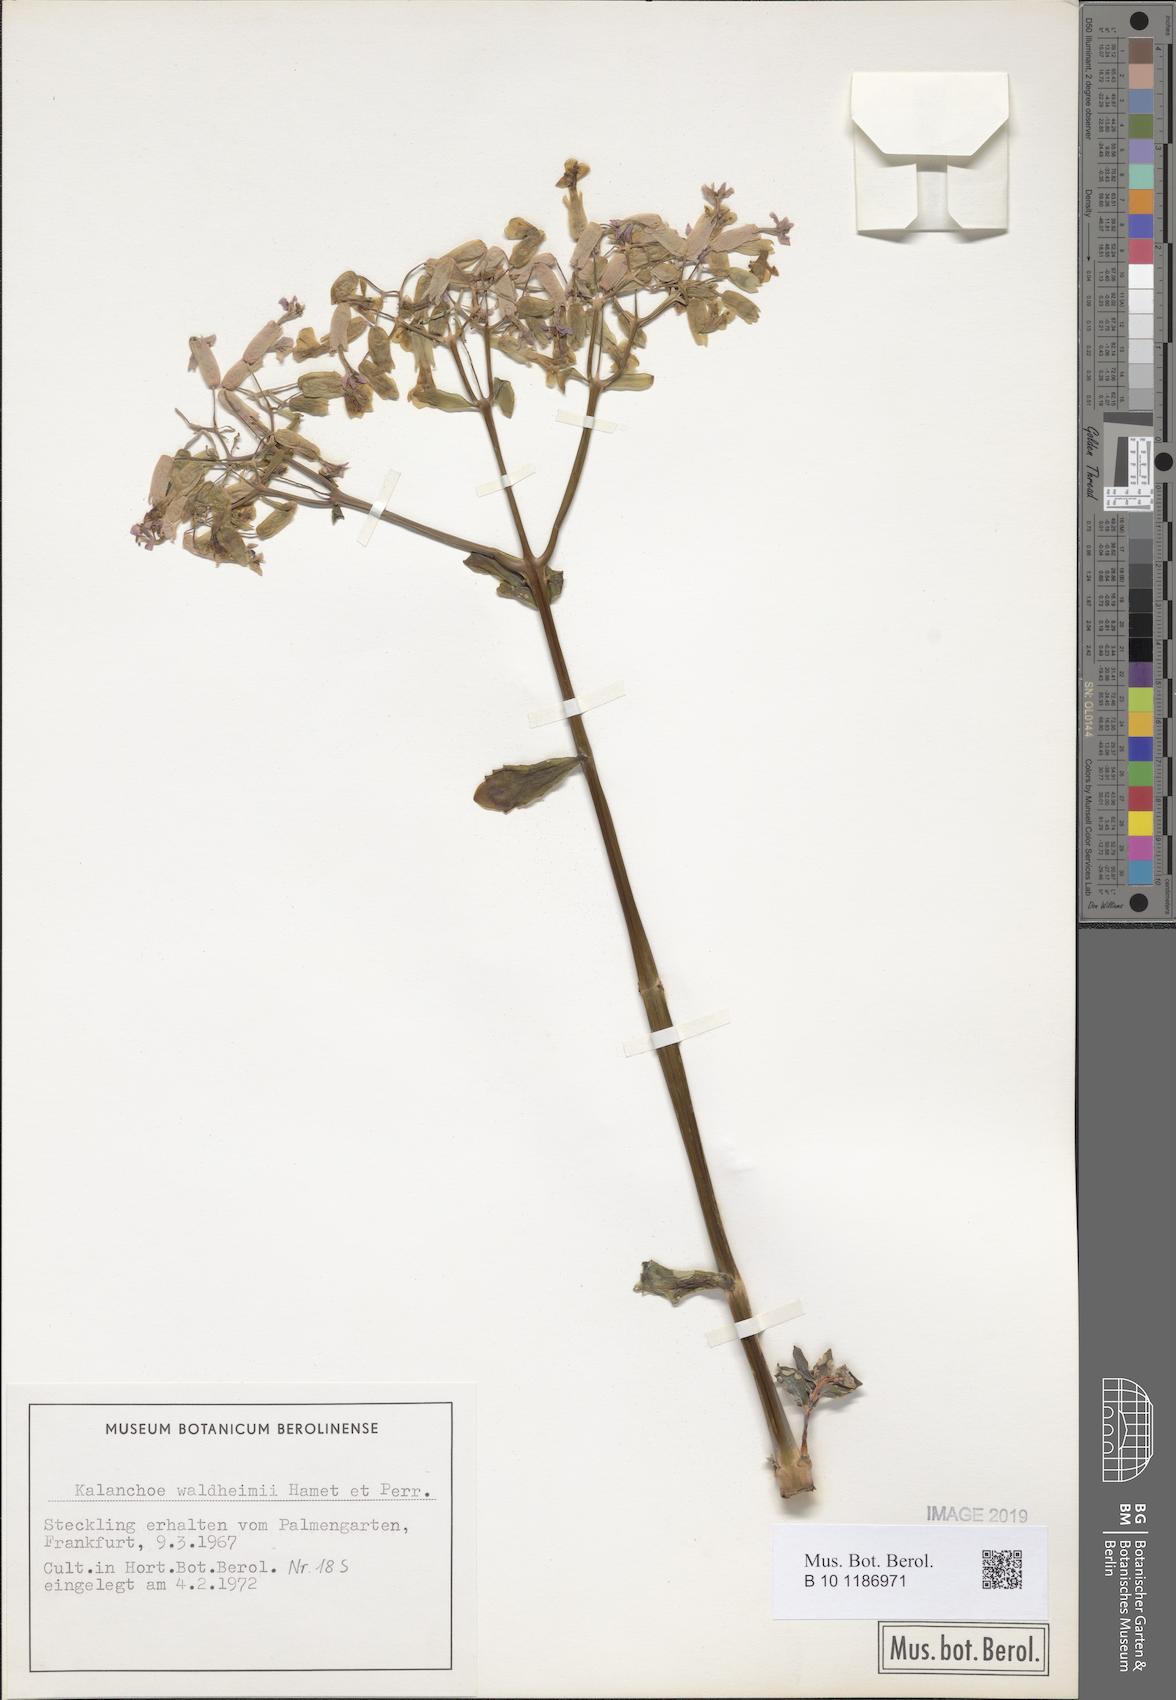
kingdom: Plantae
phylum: Tracheophyta
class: Magnoliopsida
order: Saxifragales
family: Crassulaceae
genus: Kalanchoe
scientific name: Kalanchoe waldheimii
